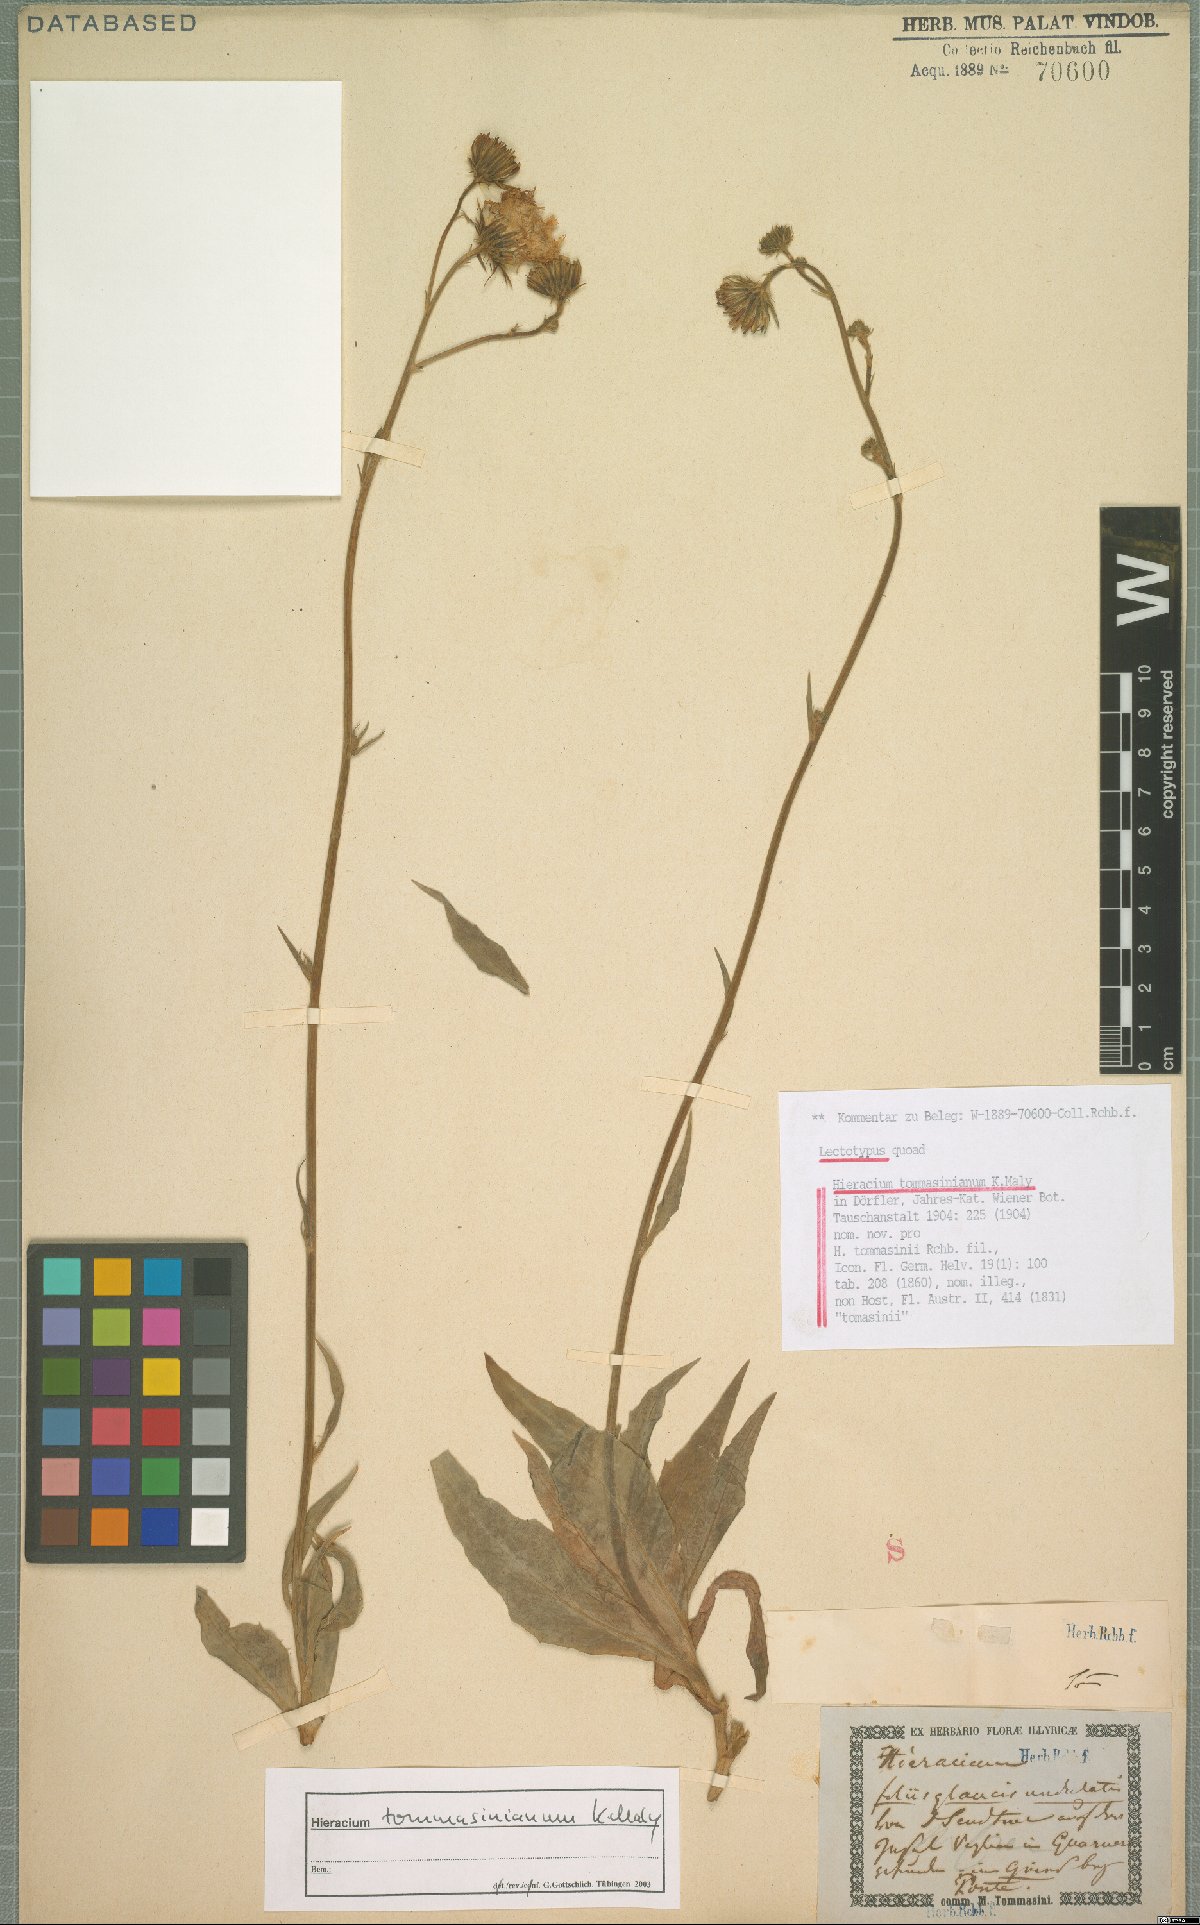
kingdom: Plantae
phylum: Tracheophyta
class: Magnoliopsida
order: Asterales
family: Asteraceae
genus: Hieracium
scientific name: Hieracium tommasinianum
